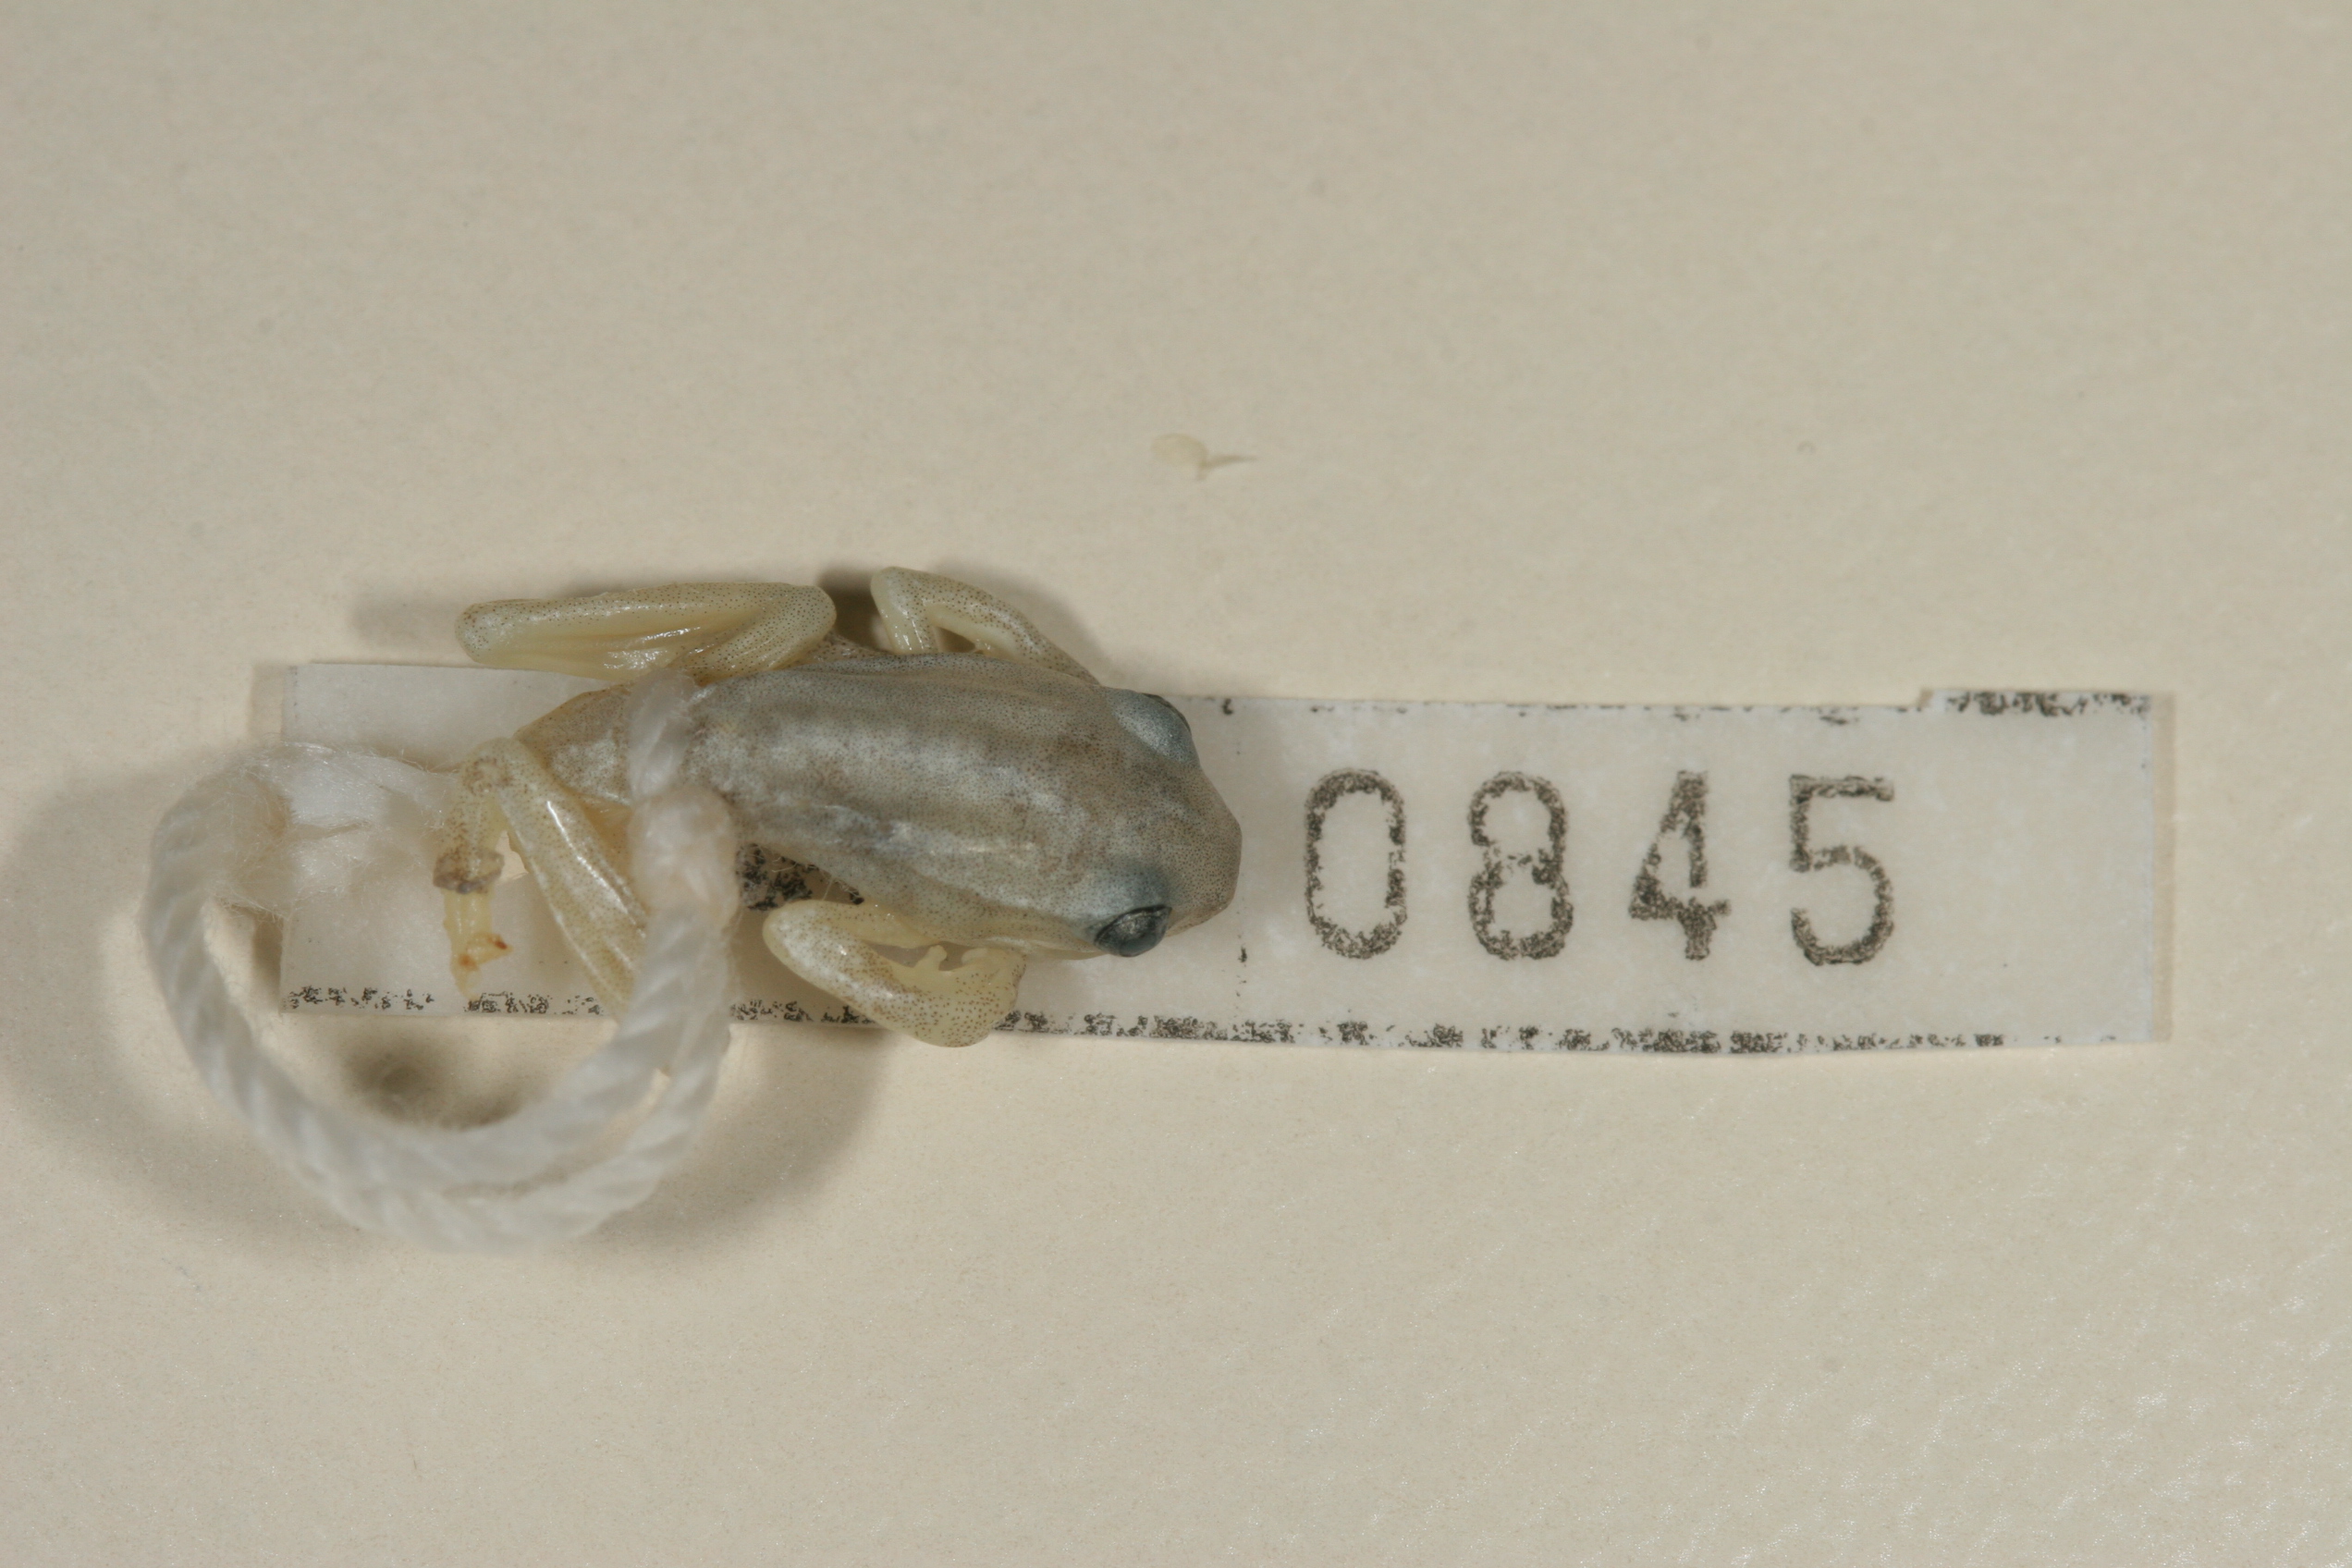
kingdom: Animalia
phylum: Chordata
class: Amphibia
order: Anura
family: Hyperoliidae
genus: Hyperolius
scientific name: Hyperolius marmoratus
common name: Painted reed frog
